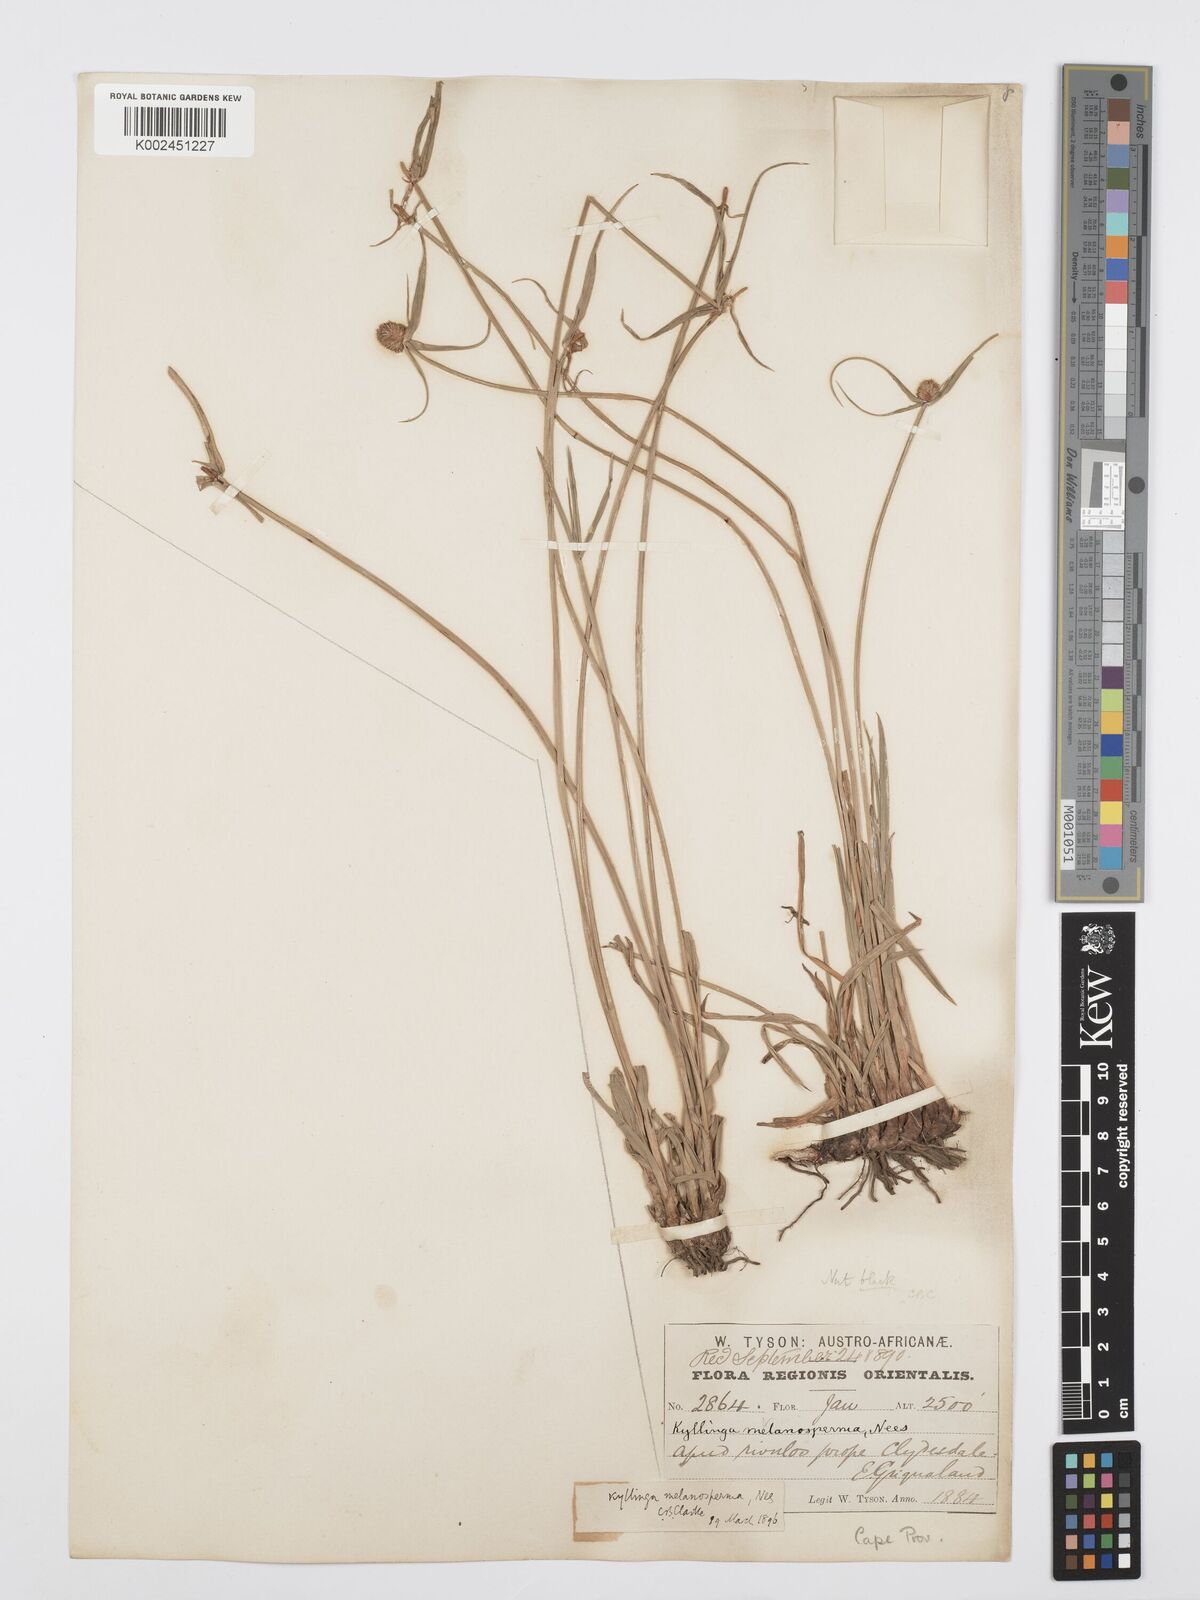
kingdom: Plantae
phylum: Tracheophyta
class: Liliopsida
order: Poales
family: Cyperaceae
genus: Cyperus
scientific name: Cyperus melanospermus
